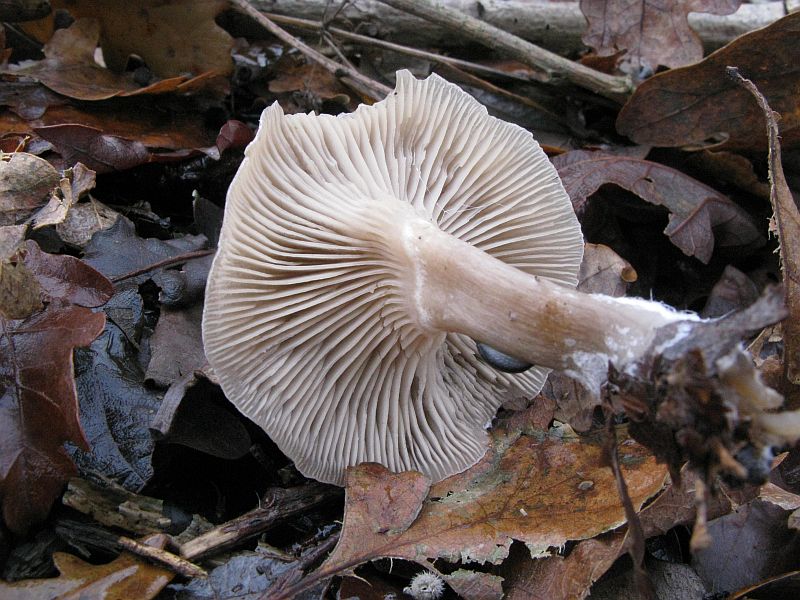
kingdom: Fungi
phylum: Basidiomycota
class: Agaricomycetes
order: Agaricales
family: Tricholomataceae
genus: Clitocybe
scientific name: Clitocybe metachroa
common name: grå tragthat
